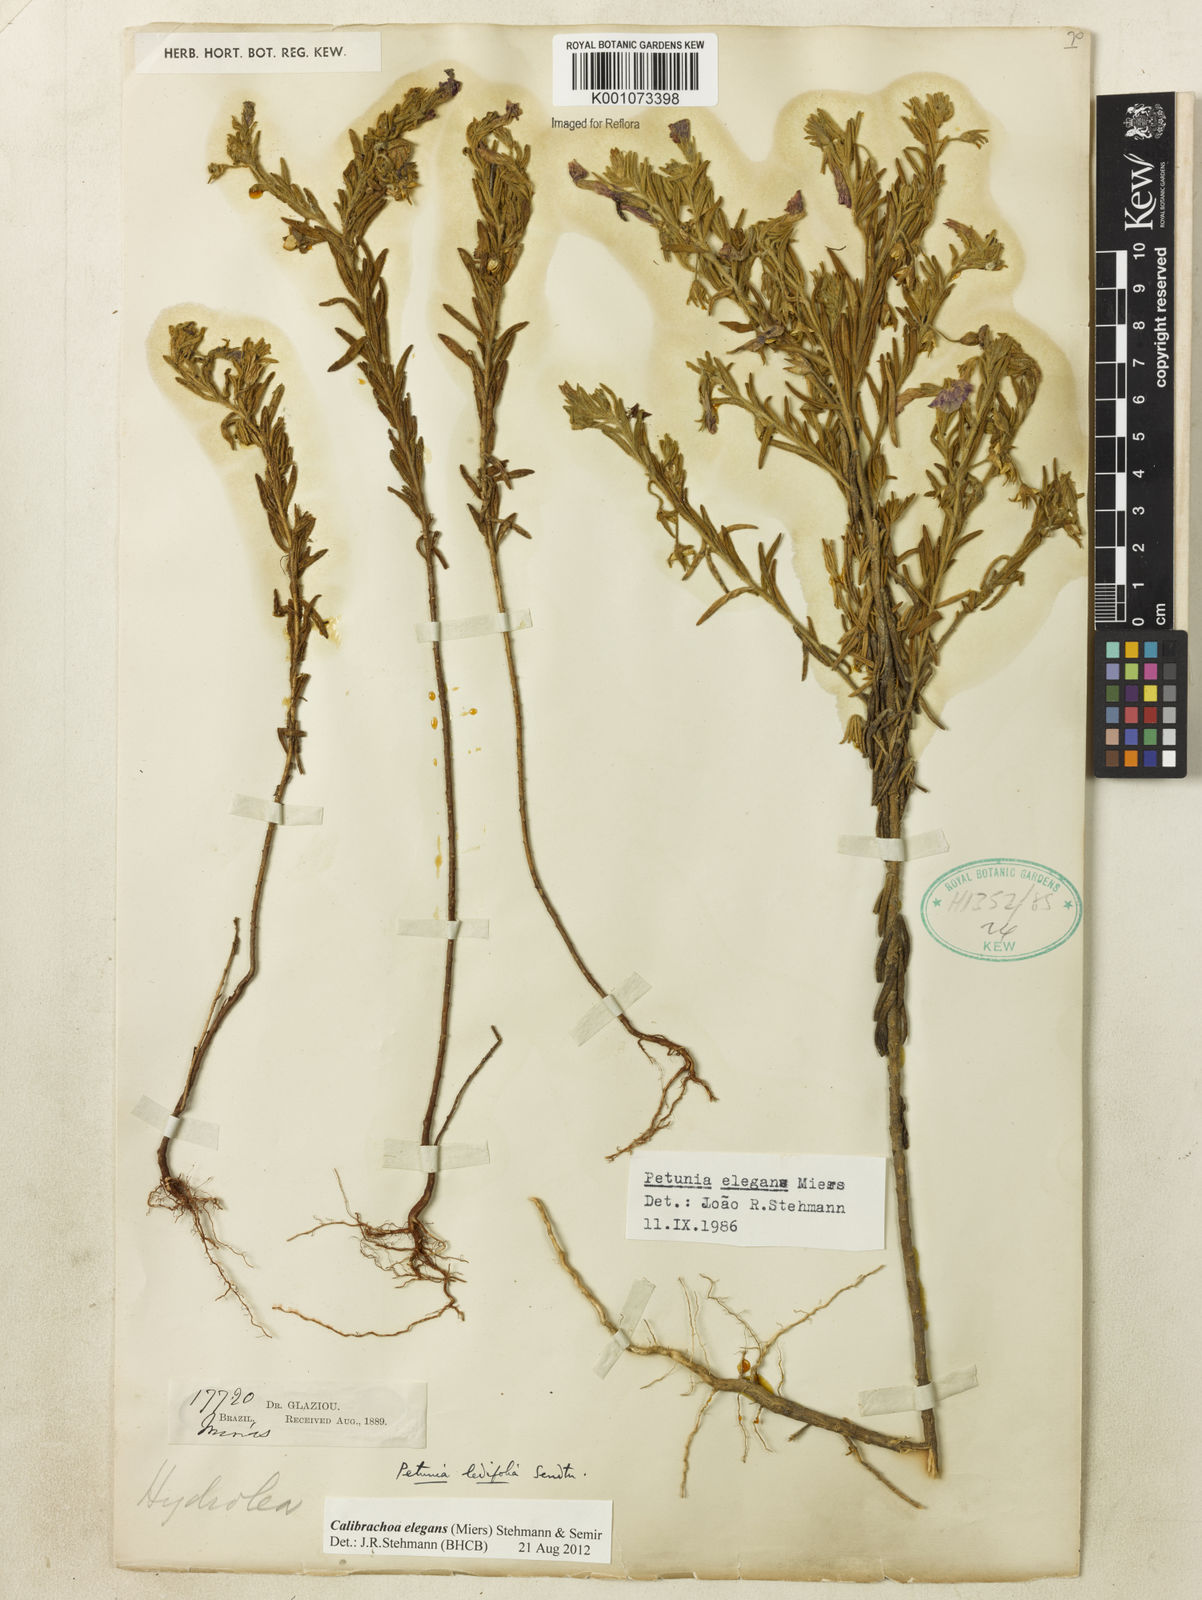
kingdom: Plantae
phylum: Tracheophyta
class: Magnoliopsida
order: Solanales
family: Solanaceae
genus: Calibrachoa
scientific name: Calibrachoa elegans
